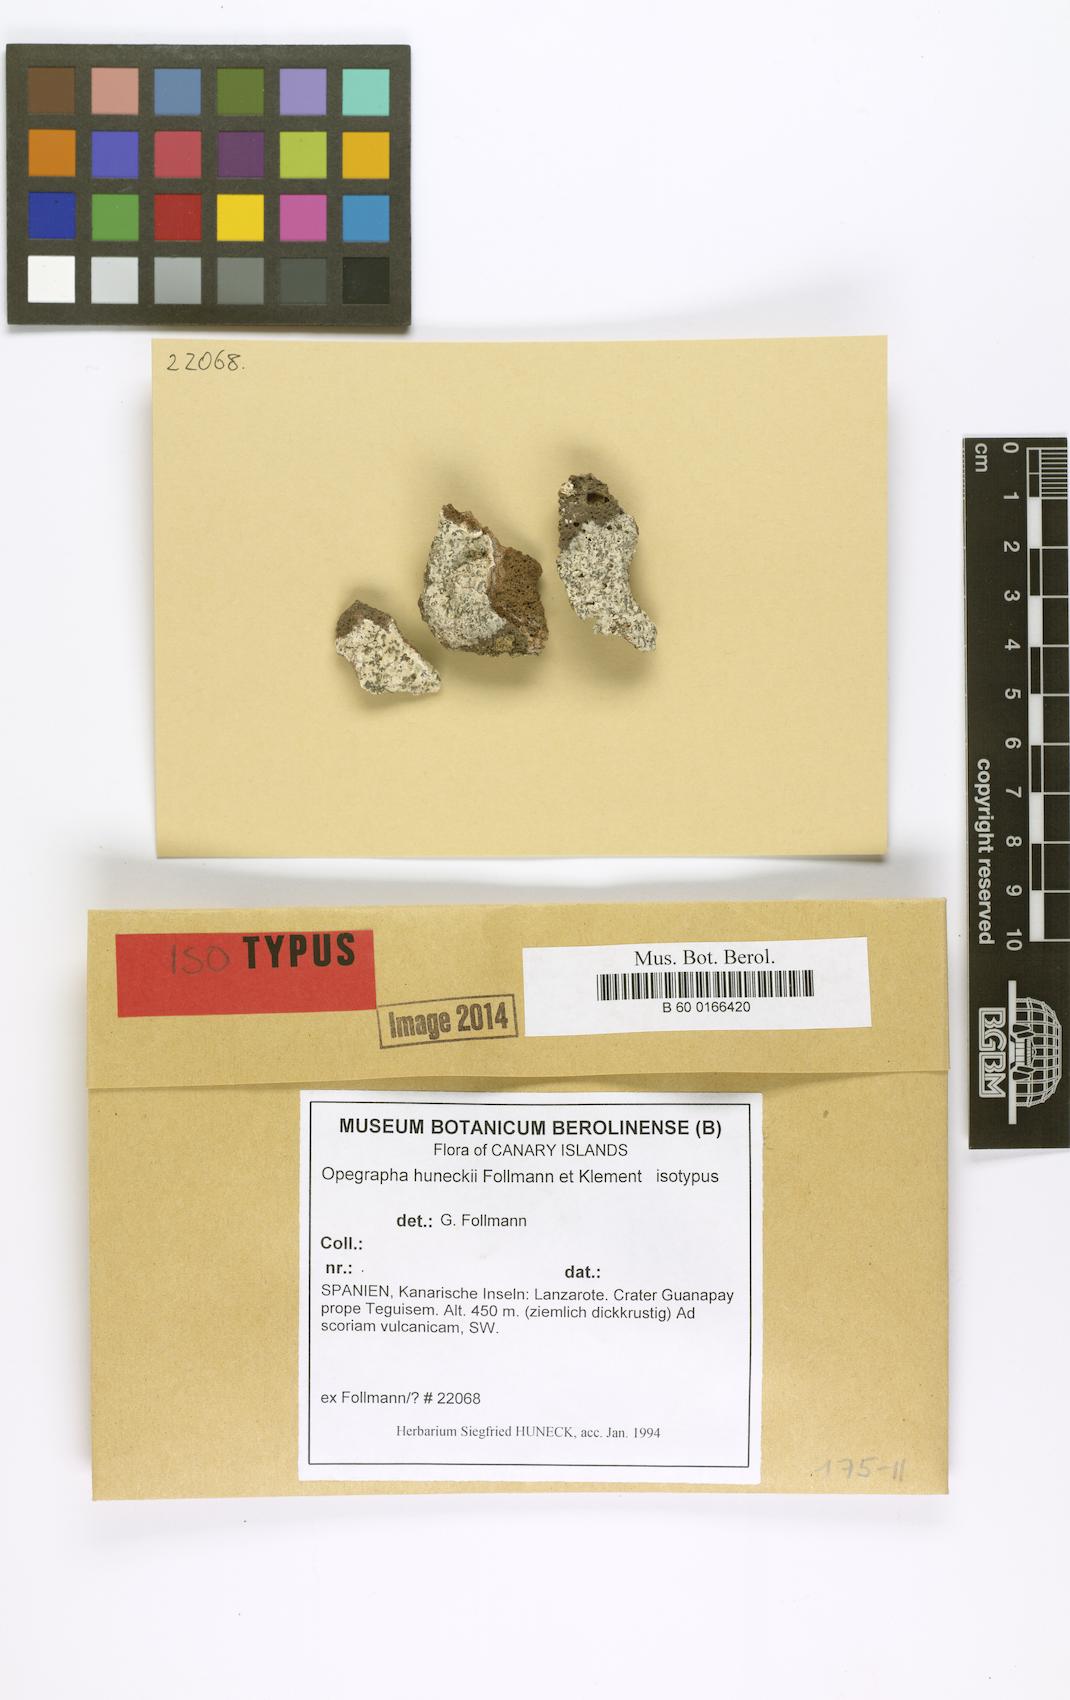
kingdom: Fungi
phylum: Ascomycota
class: Arthoniomycetes
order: Arthoniales
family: Opegraphaceae
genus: Opegrapha
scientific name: Opegrapha
